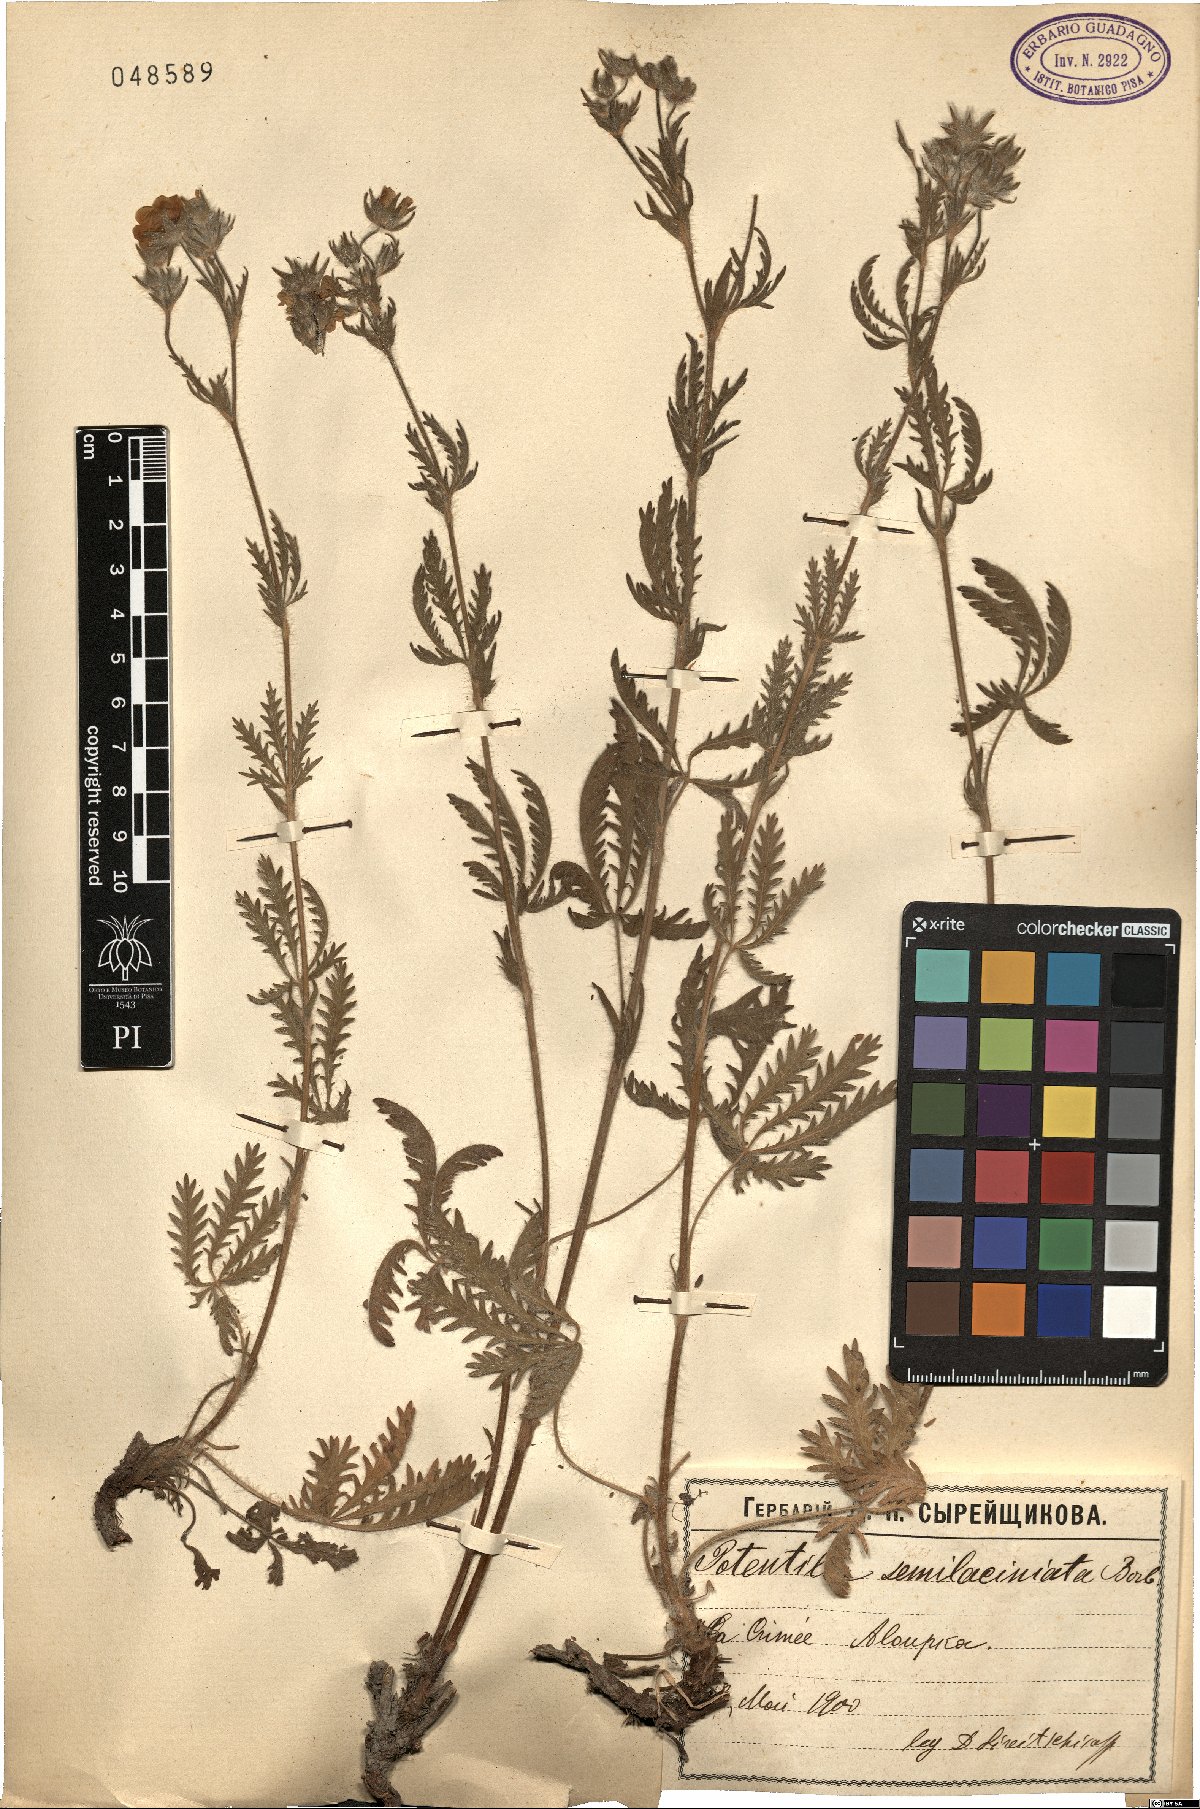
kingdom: Plantae
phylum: Tracheophyta
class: Magnoliopsida
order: Rosales
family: Rosaceae
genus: Potentilla
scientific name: Potentilla recta
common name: Sulphur cinquefoil
